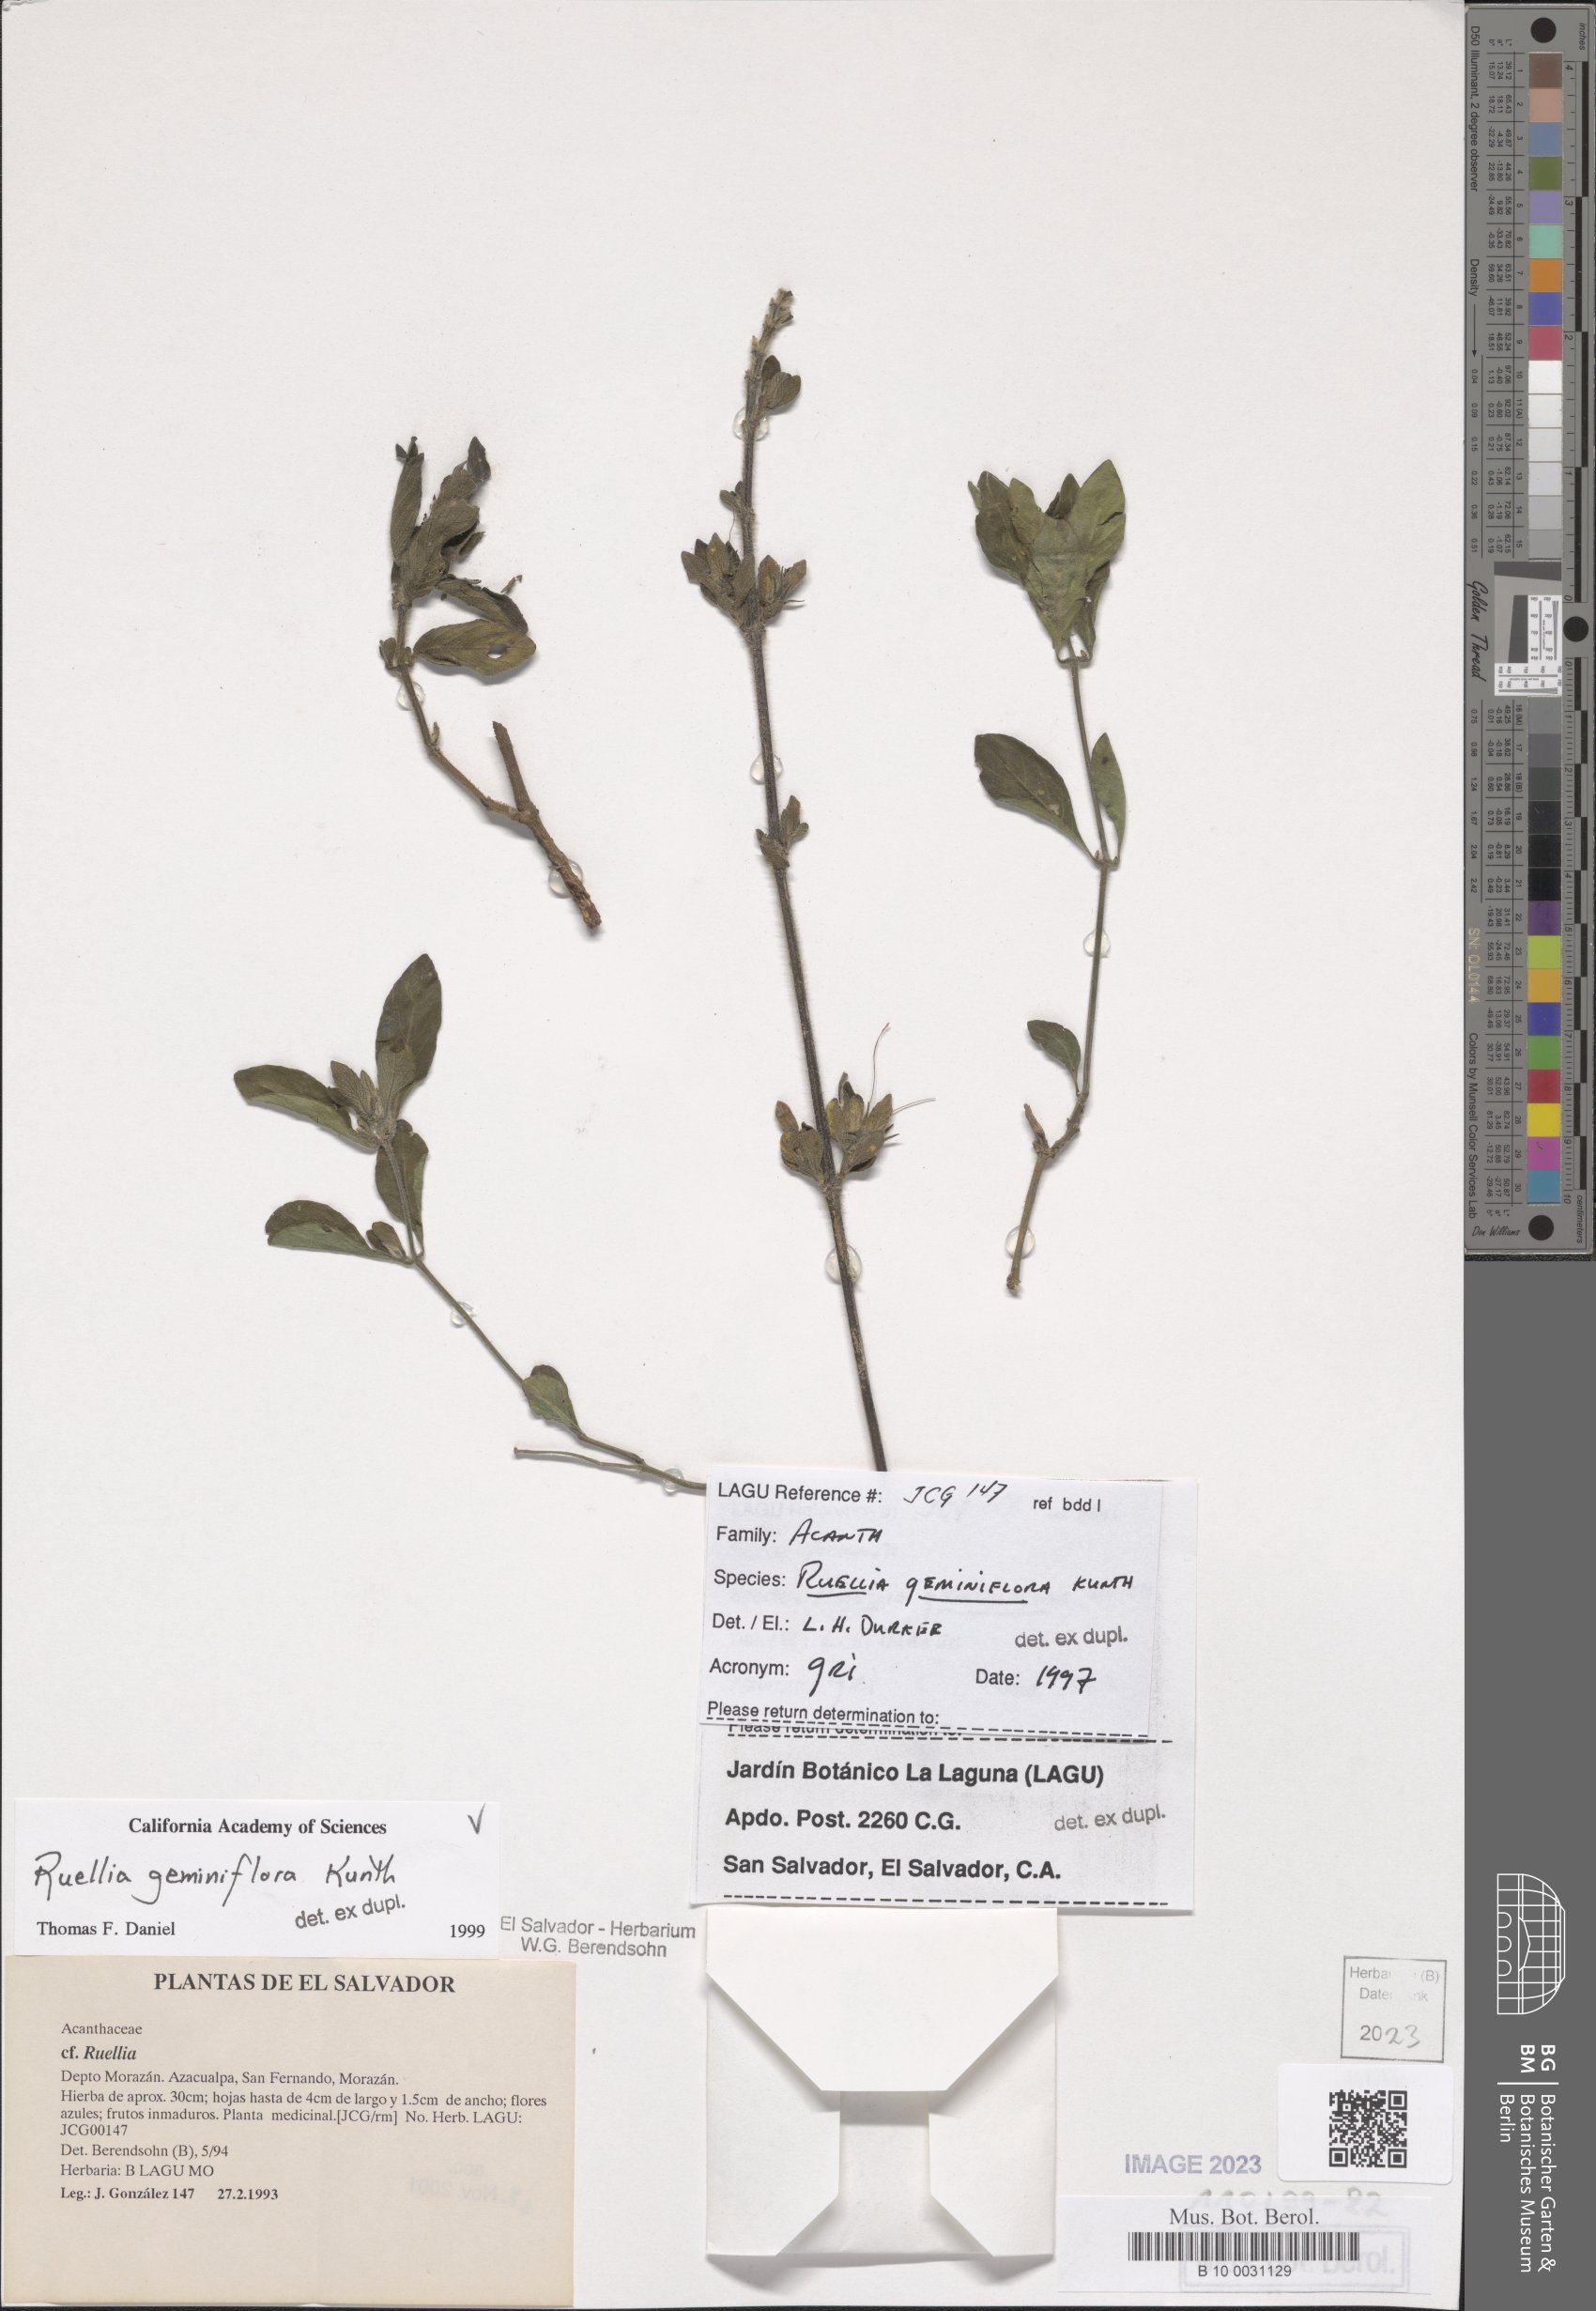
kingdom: Plantae
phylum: Tracheophyta
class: Magnoliopsida
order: Lamiales
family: Acanthaceae
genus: Ruellia
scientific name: Ruellia geminiflora
